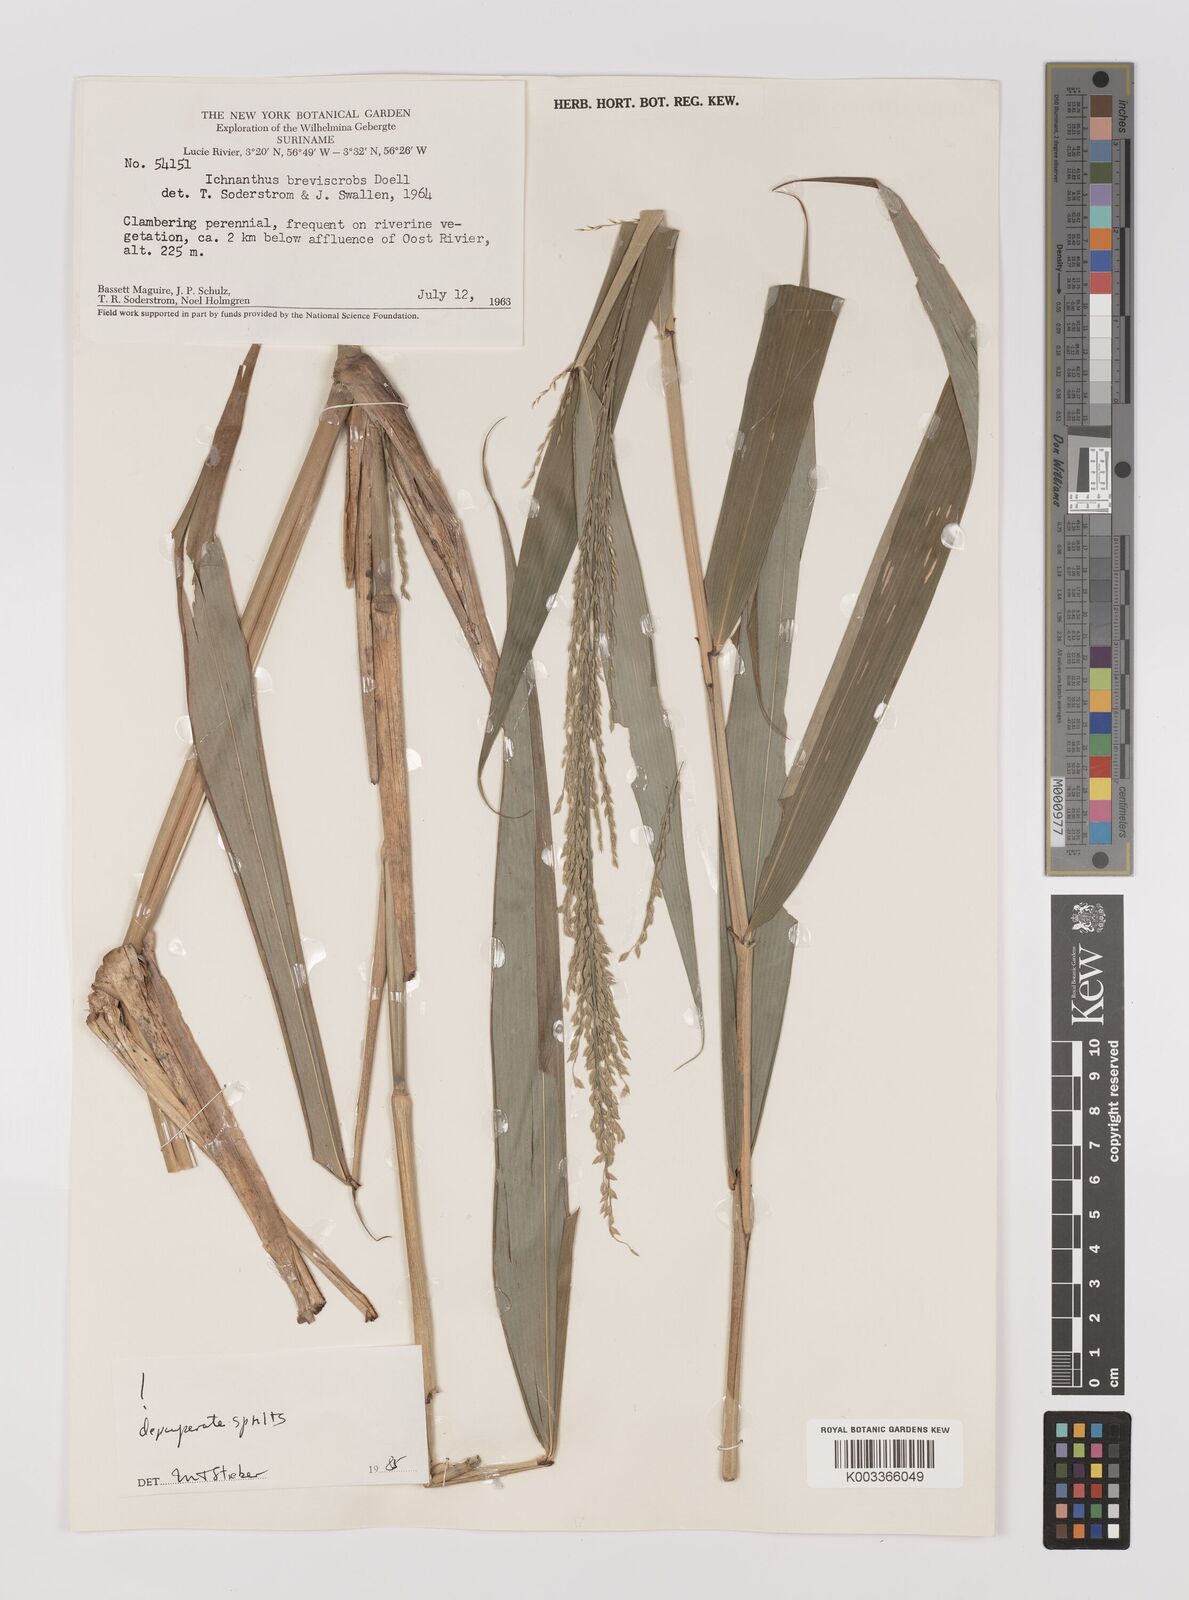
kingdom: Plantae
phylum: Tracheophyta
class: Liliopsida
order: Poales
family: Poaceae
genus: Ichnanthus
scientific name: Ichnanthus breviscrobs
